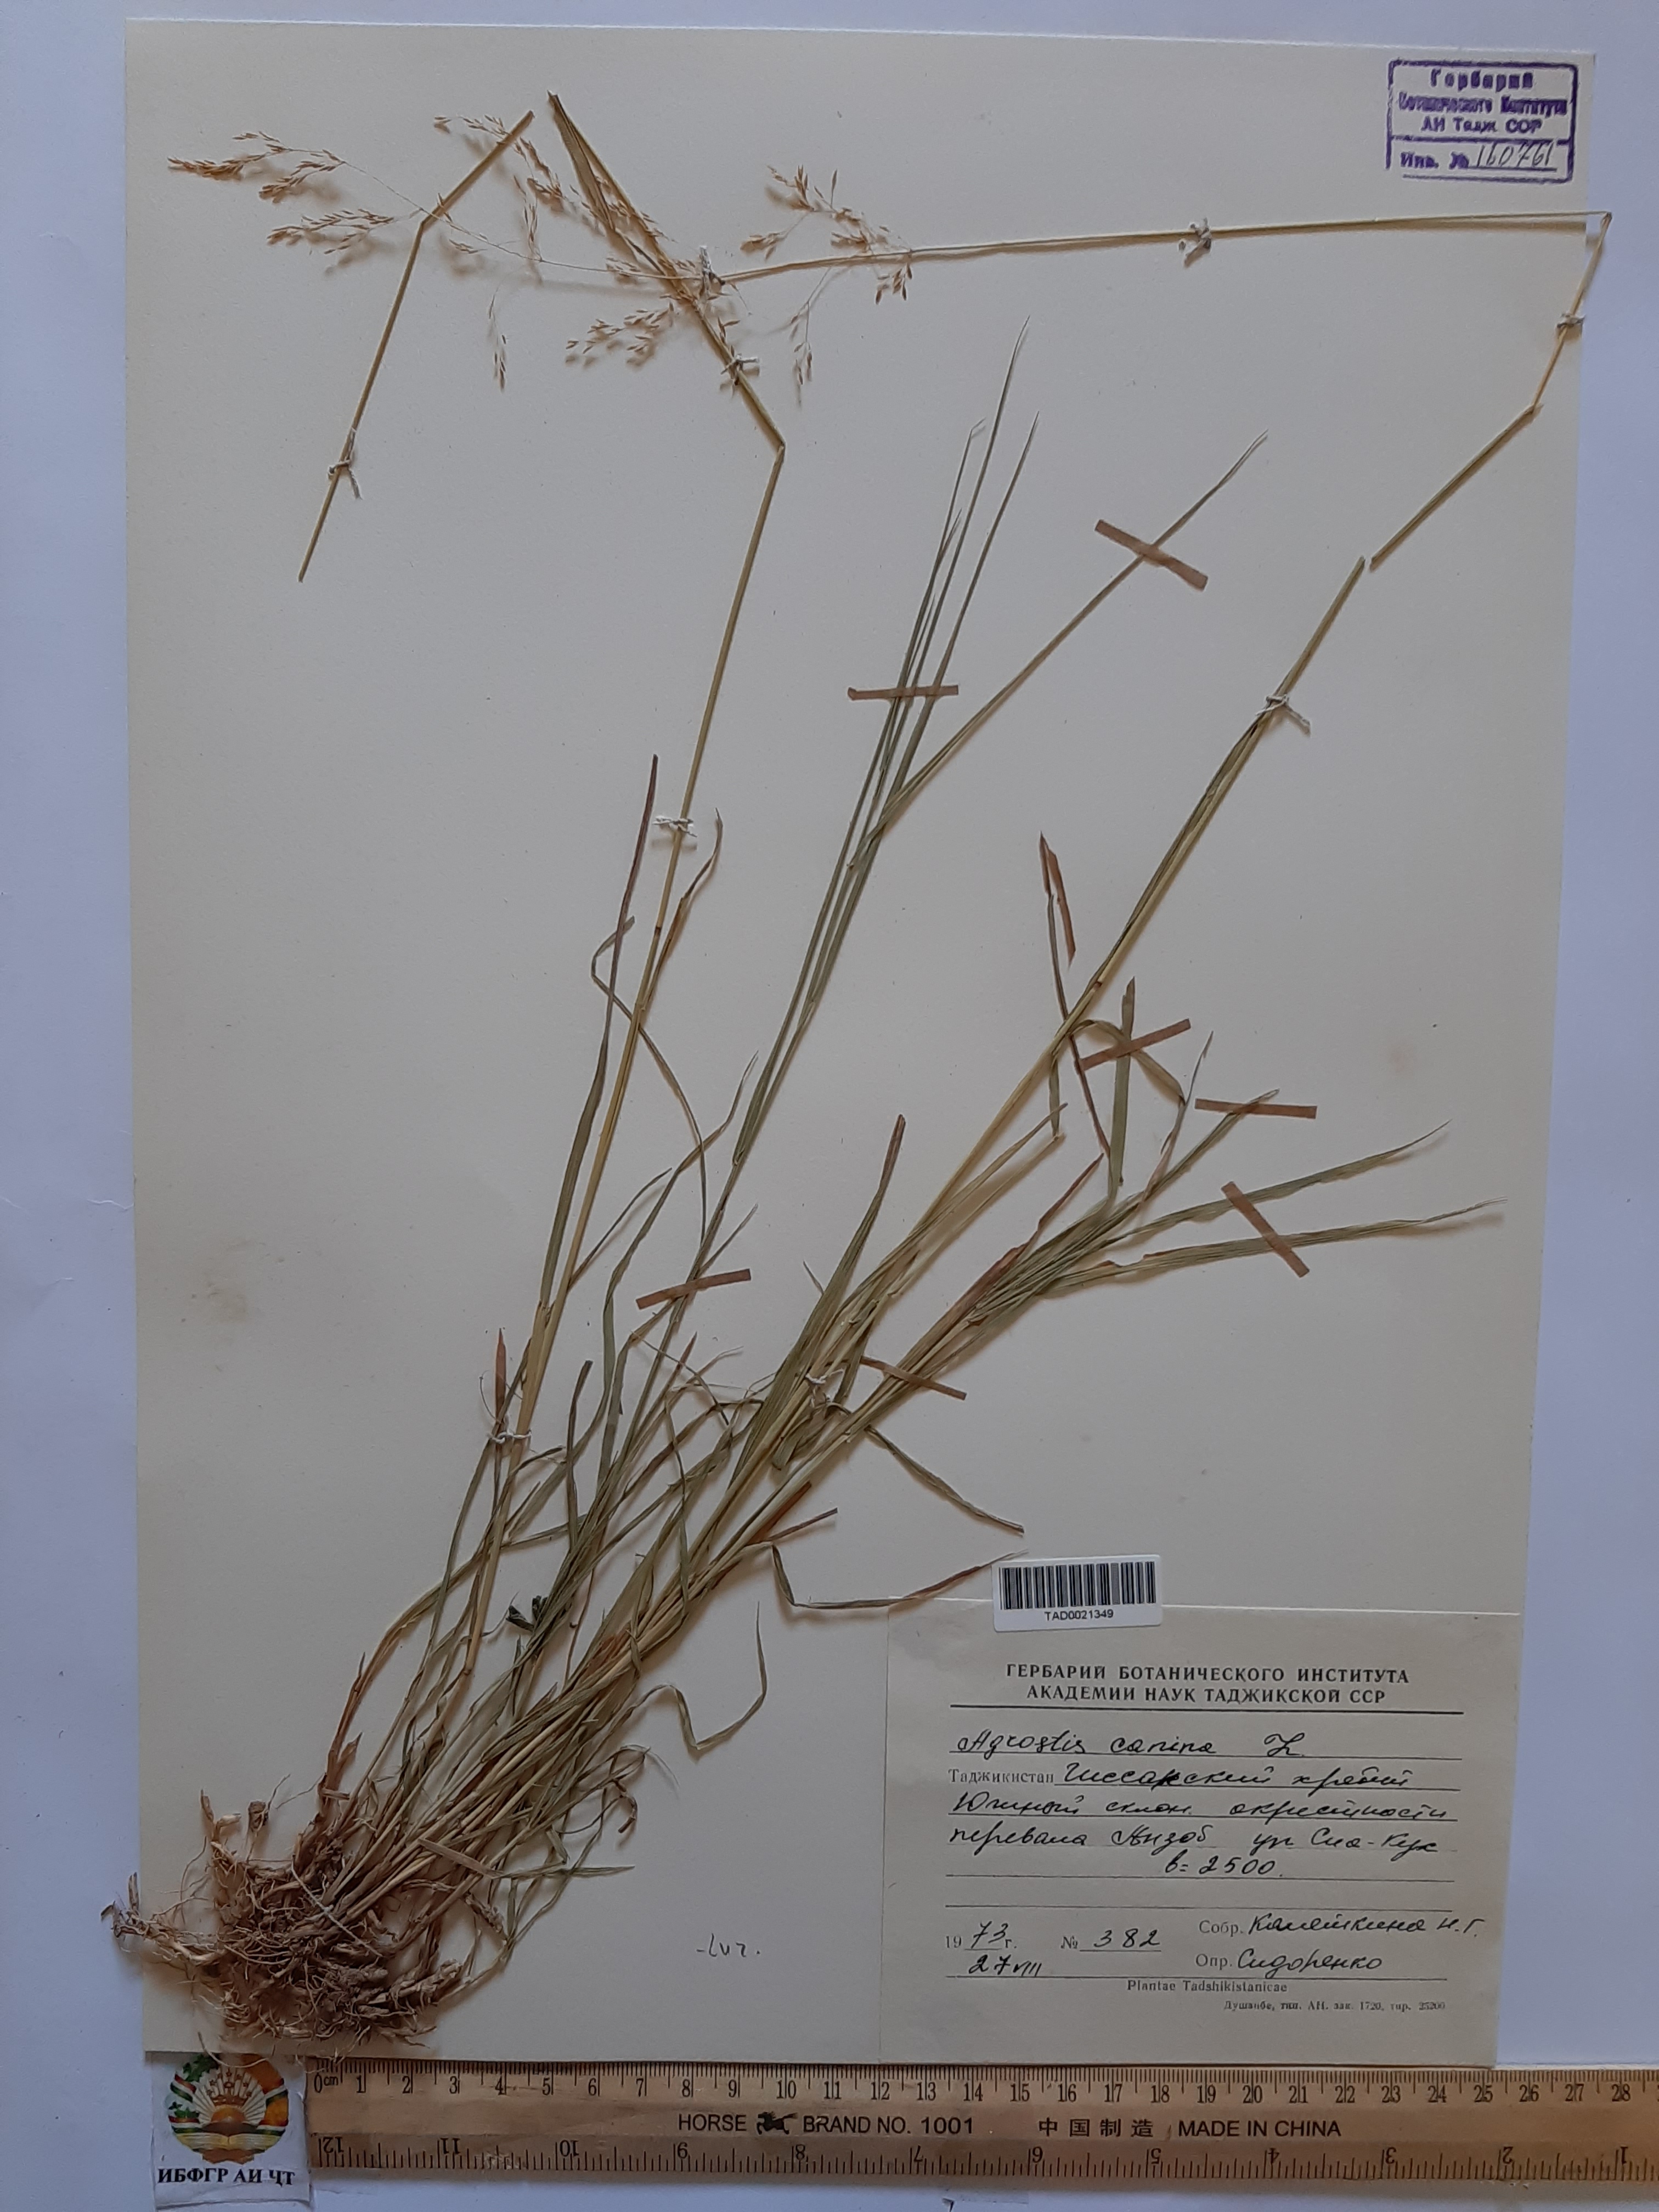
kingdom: Plantae
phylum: Tracheophyta
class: Liliopsida
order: Poales
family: Poaceae
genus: Agrostis
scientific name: Agrostis canina
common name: Velvet bent
